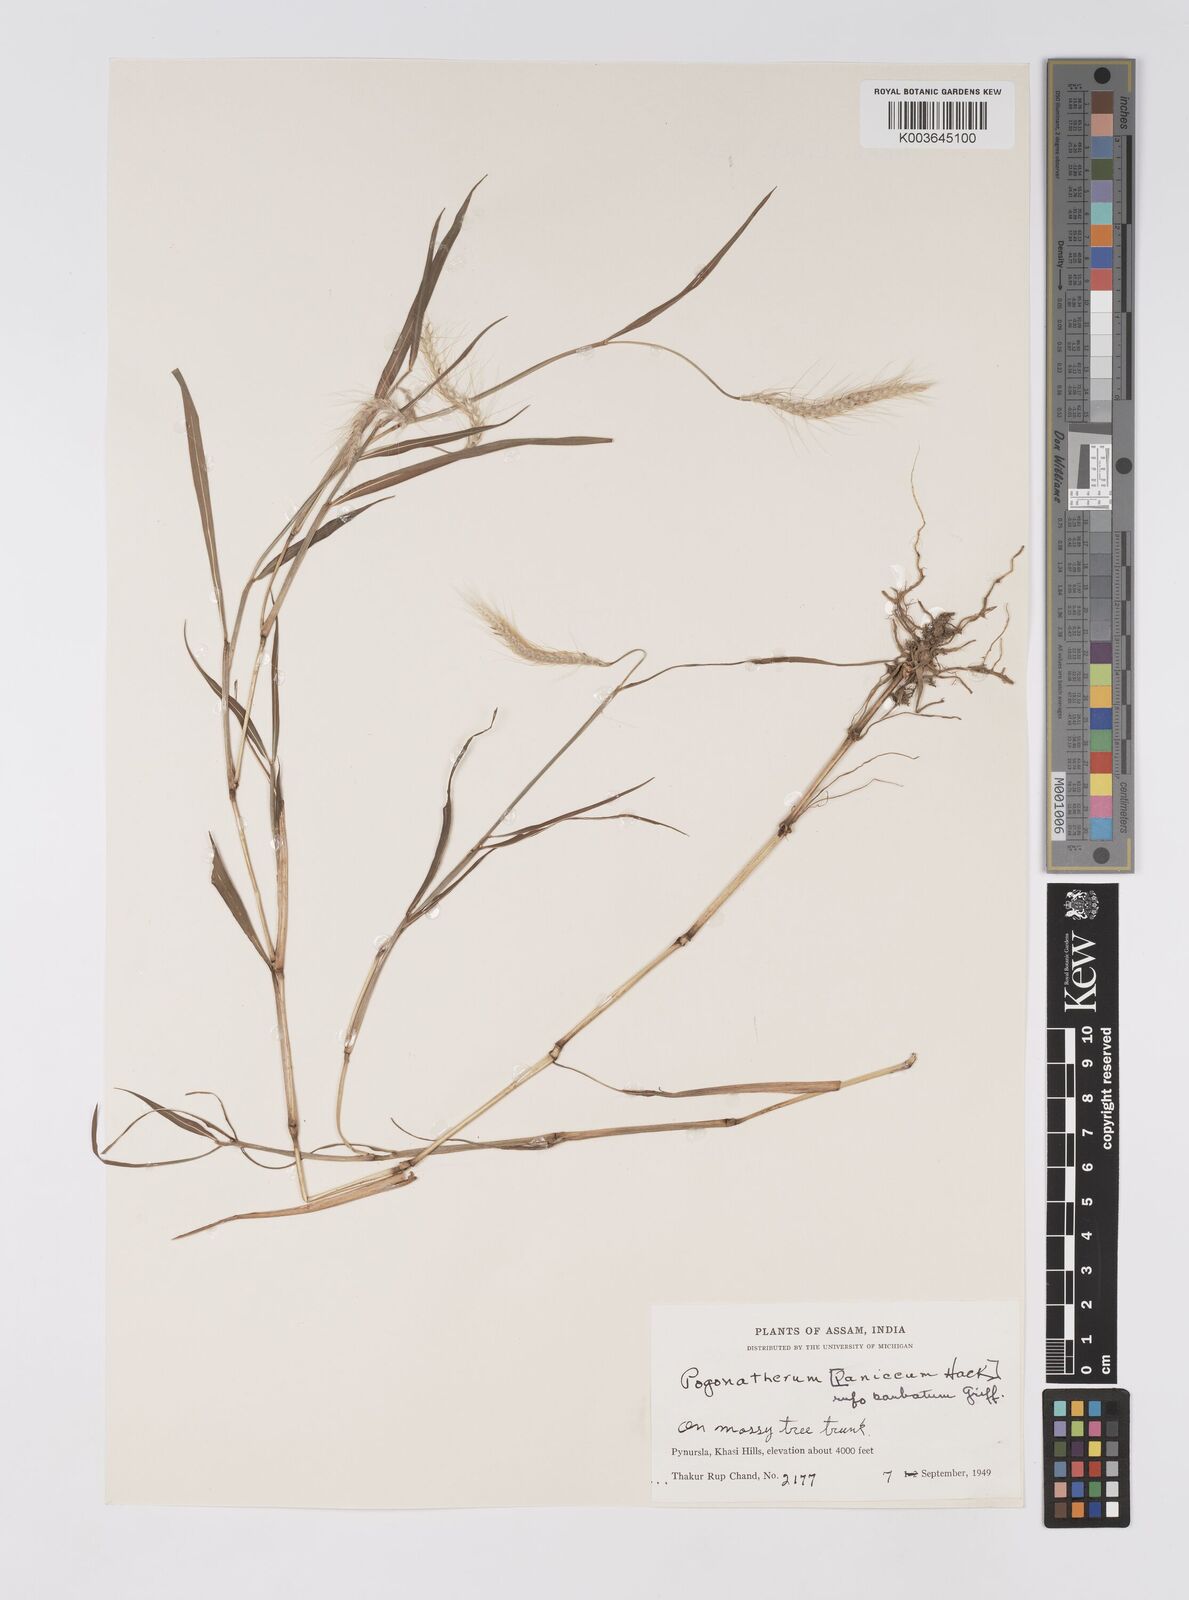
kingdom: Plantae
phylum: Tracheophyta
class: Liliopsida
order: Poales
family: Poaceae
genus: Pogonatherum
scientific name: Pogonatherum rufobarbatum
